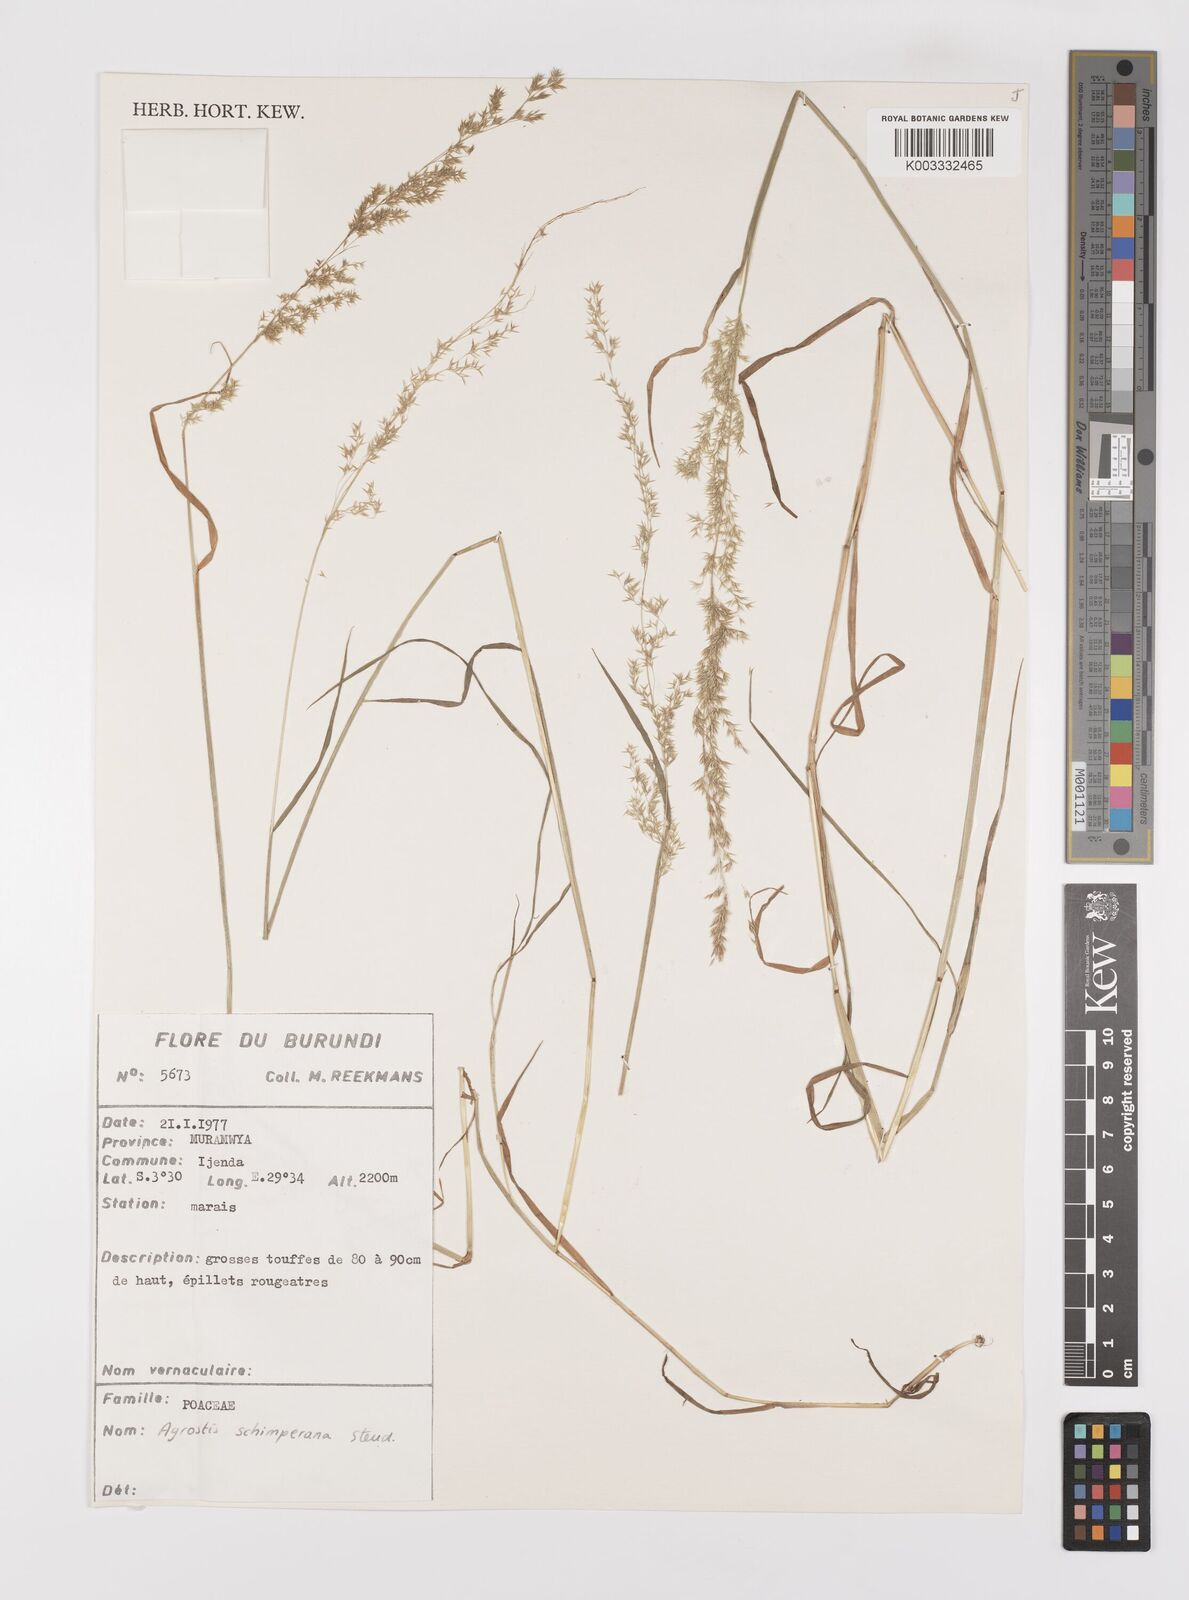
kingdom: Plantae
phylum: Tracheophyta
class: Liliopsida
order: Poales
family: Poaceae
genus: Polypogon
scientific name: Polypogon schimperianus
